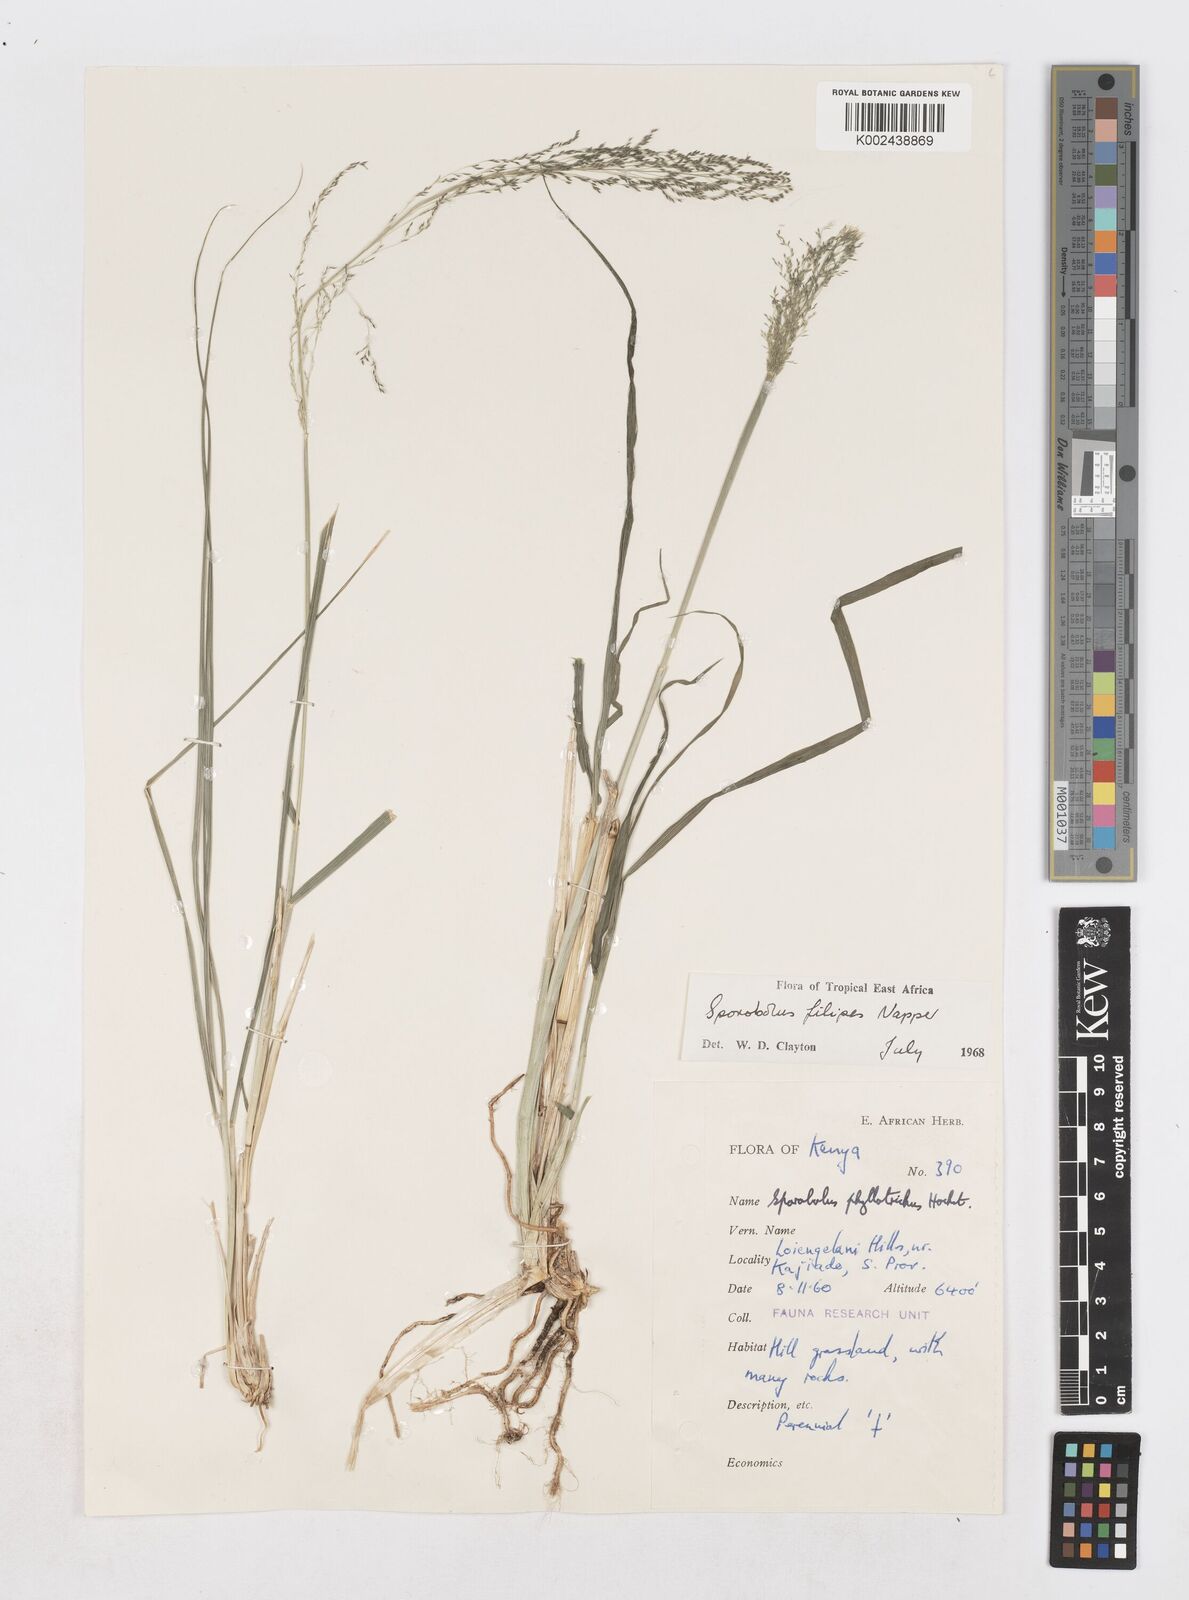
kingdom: Plantae
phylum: Tracheophyta
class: Liliopsida
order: Poales
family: Poaceae
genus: Sporobolus
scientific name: Sporobolus agrostoides
